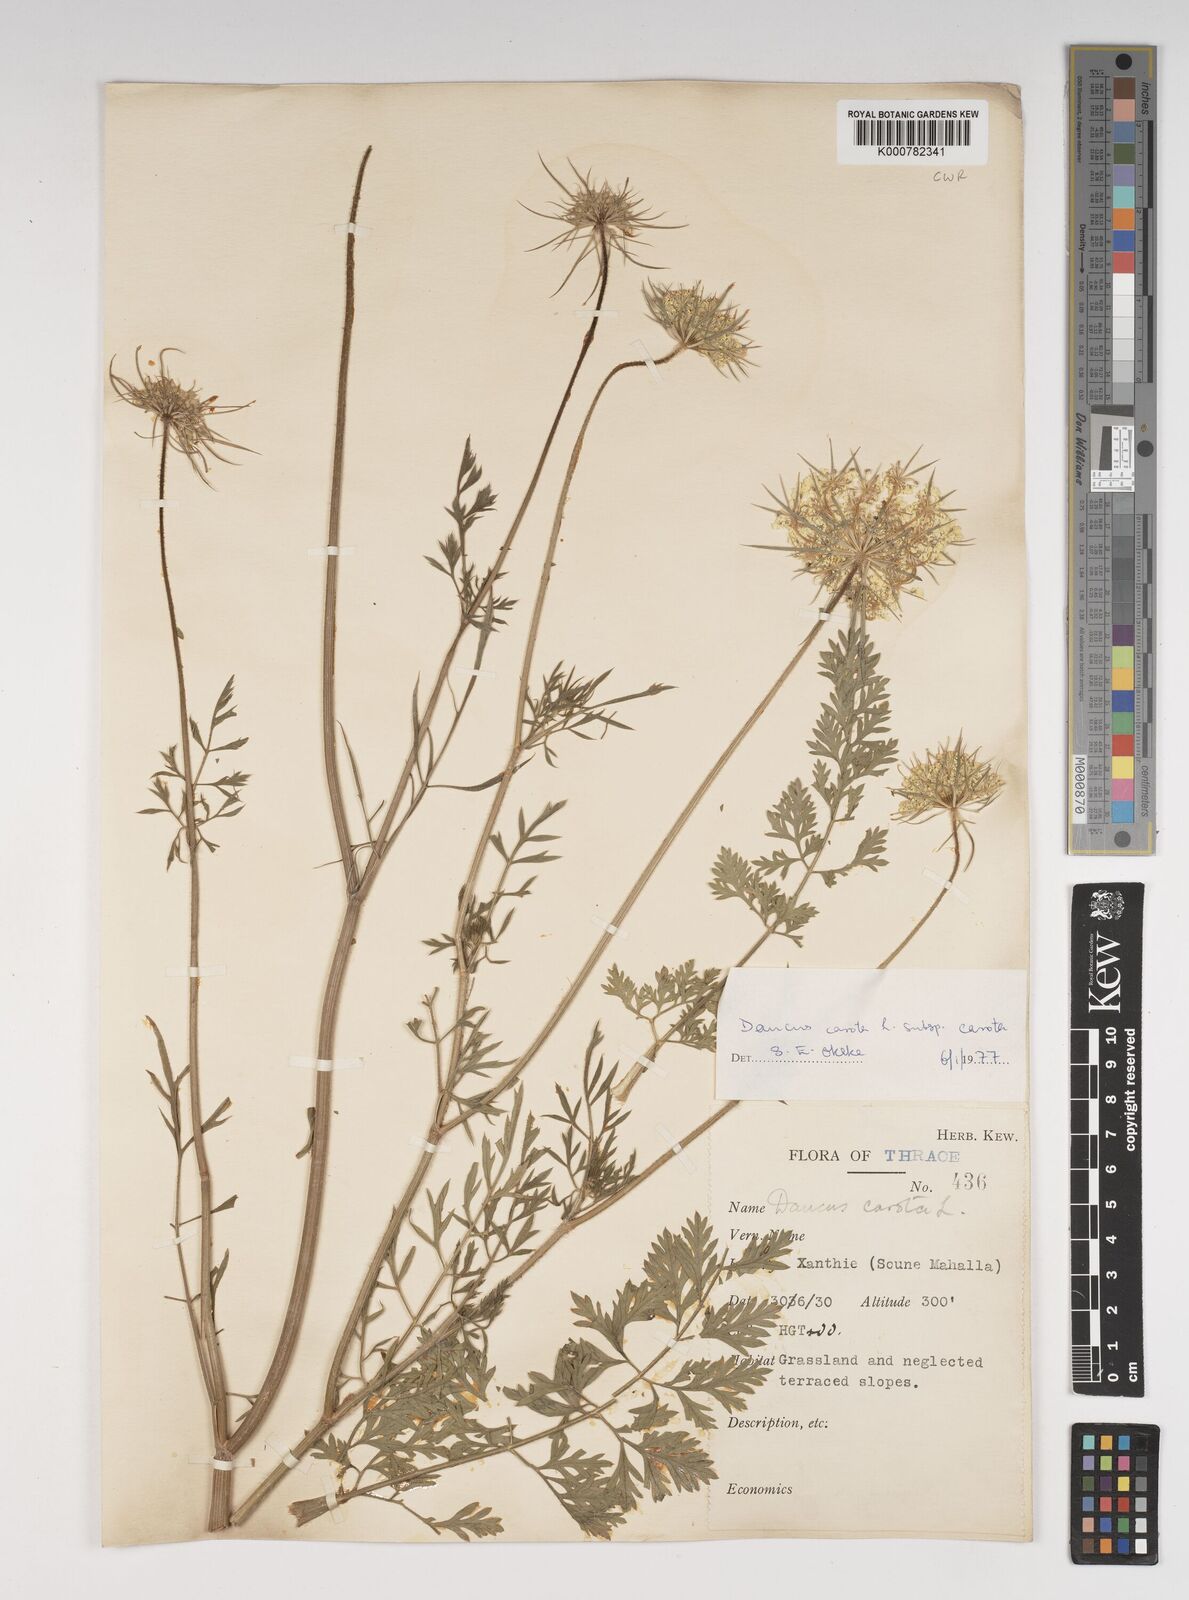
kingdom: Plantae
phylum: Tracheophyta
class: Magnoliopsida
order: Apiales
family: Apiaceae
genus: Daucus
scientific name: Daucus carota
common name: Wild carrot
